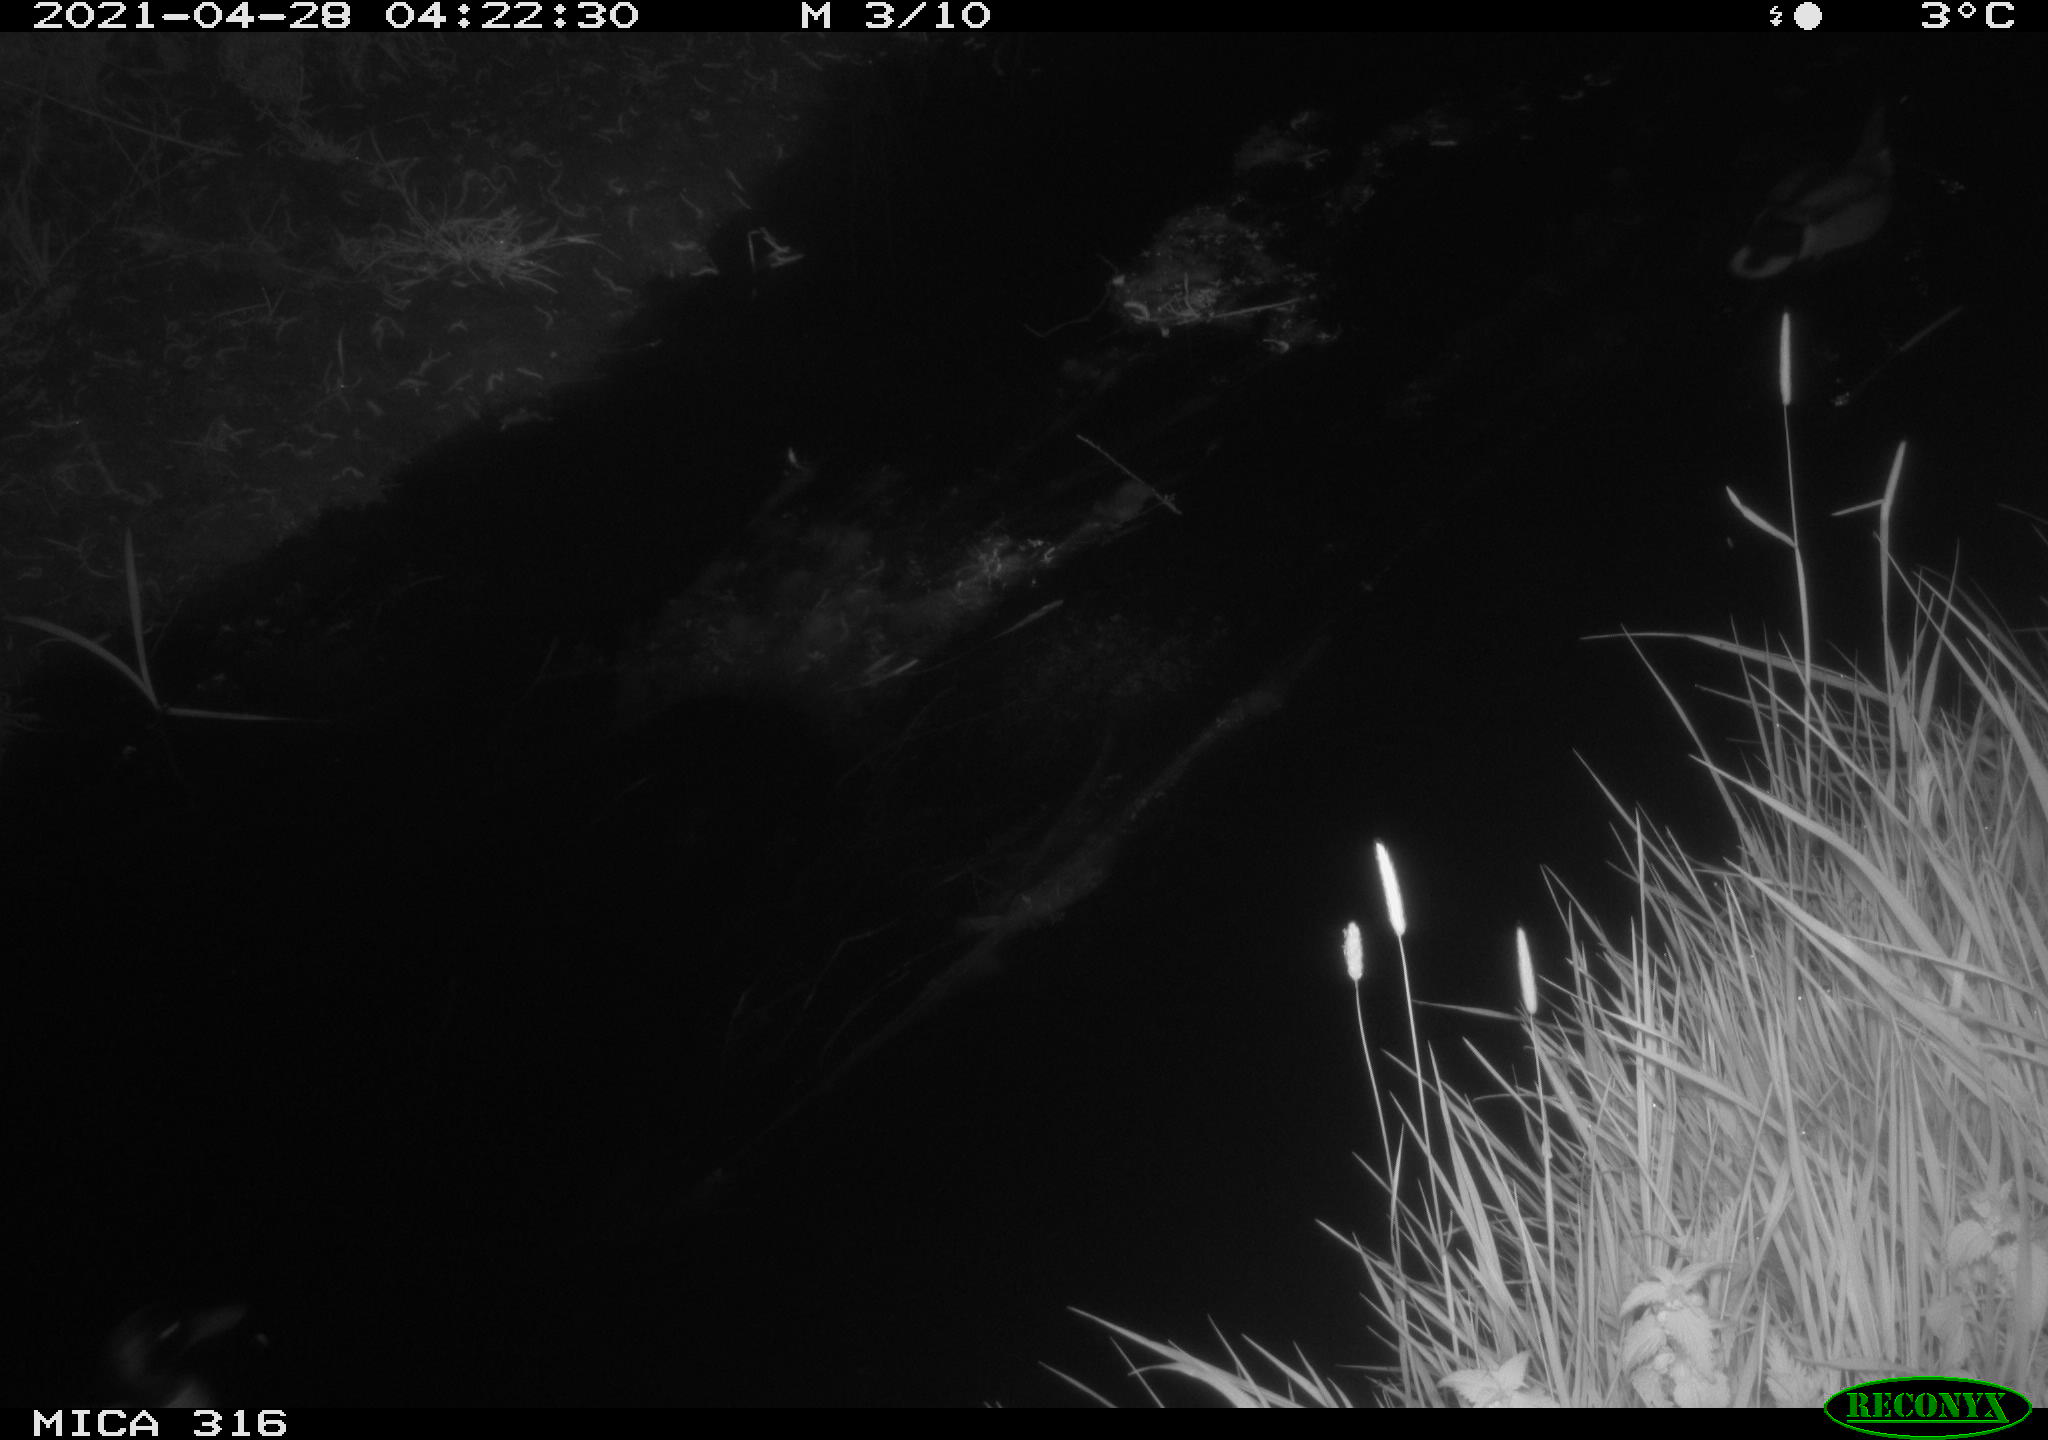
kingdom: Animalia
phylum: Chordata
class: Aves
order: Anseriformes
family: Anatidae
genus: Anas
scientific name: Anas platyrhynchos
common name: Mallard
